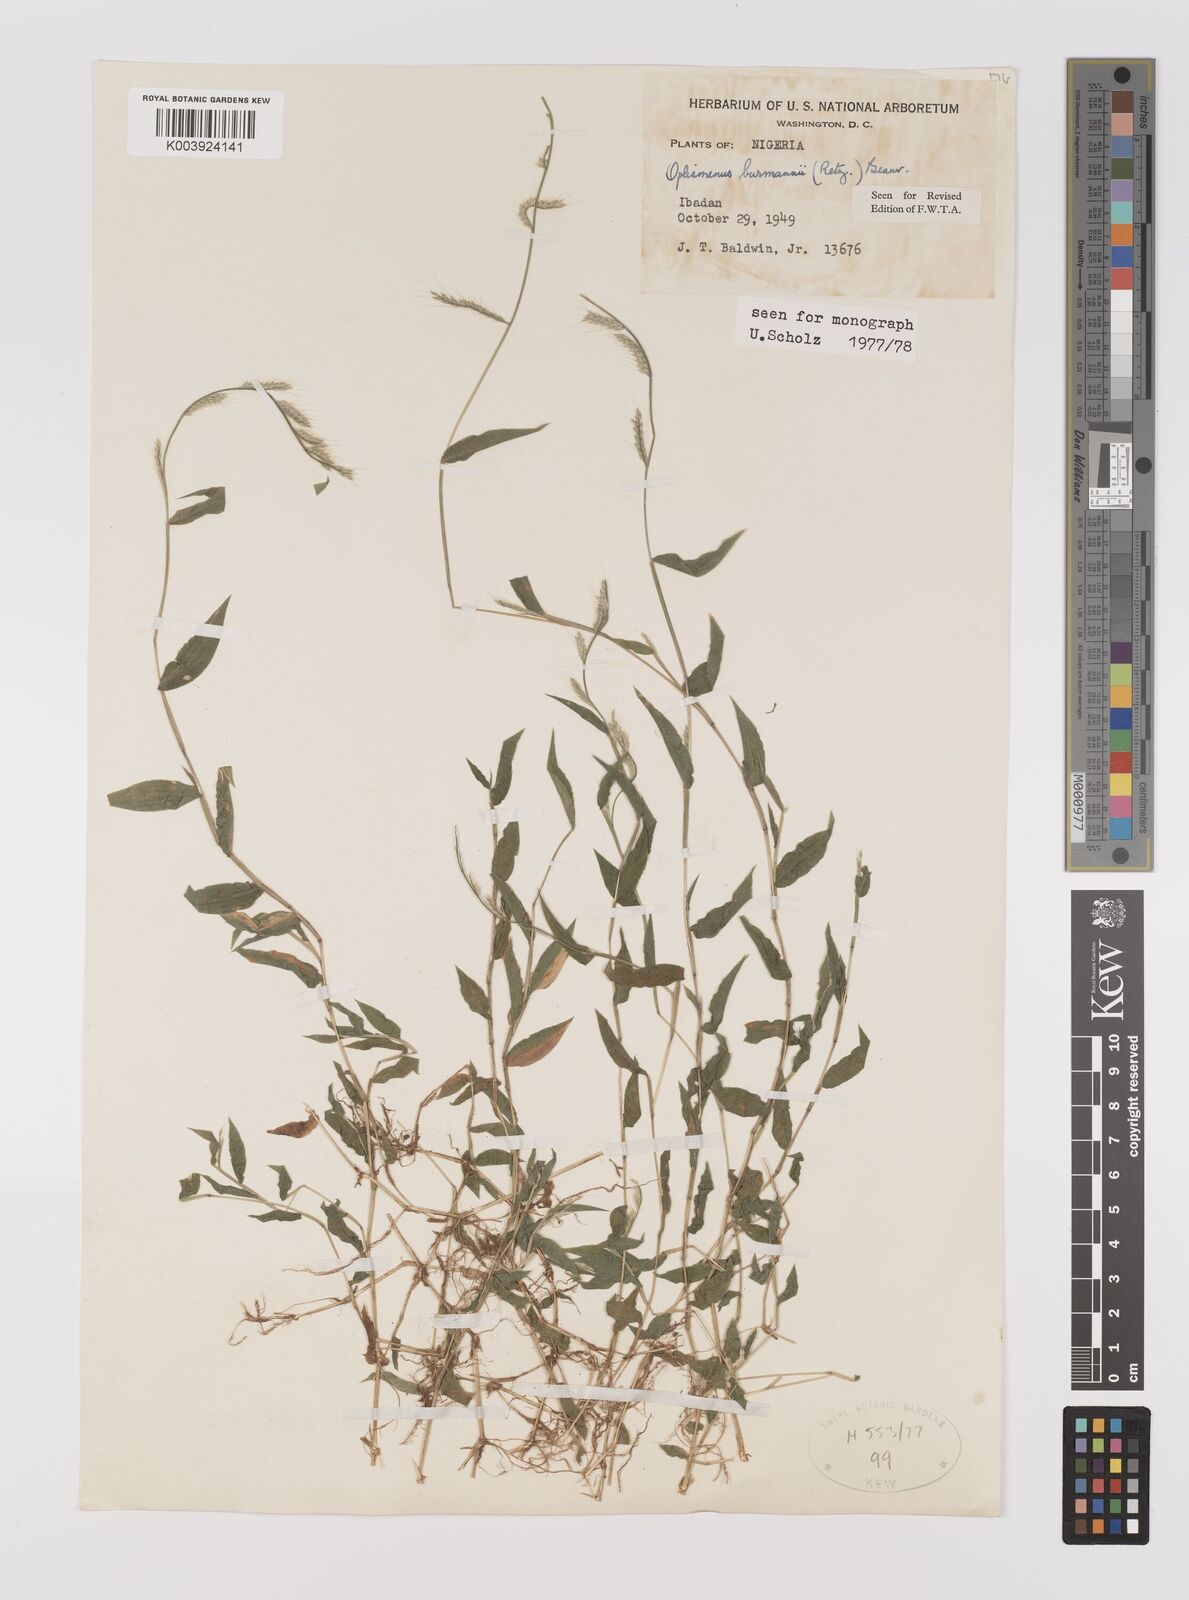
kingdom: Plantae
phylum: Tracheophyta
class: Liliopsida
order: Poales
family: Poaceae
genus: Oplismenus
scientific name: Oplismenus burmanni
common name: Burmann's basketgrass
